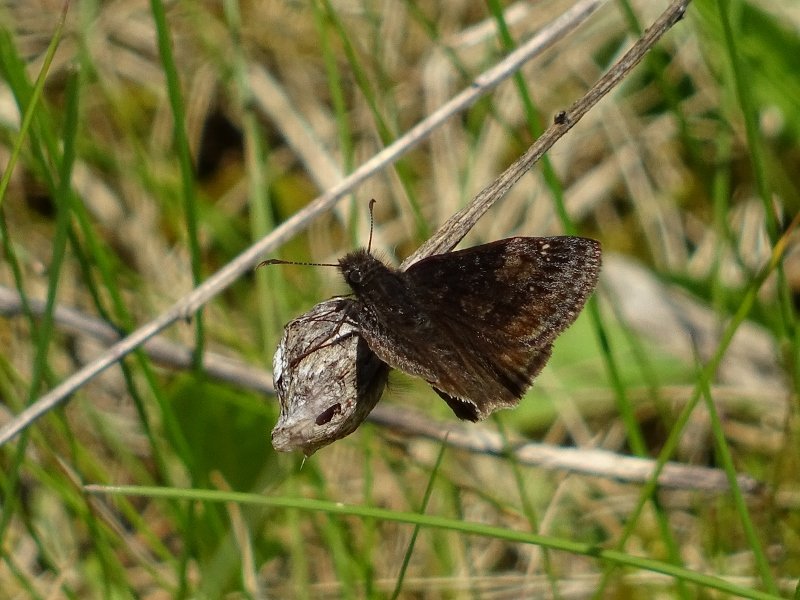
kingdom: Animalia
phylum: Arthropoda
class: Insecta
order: Lepidoptera
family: Hesperiidae
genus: Gesta
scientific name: Gesta
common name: Wild Indigo Duskywing
